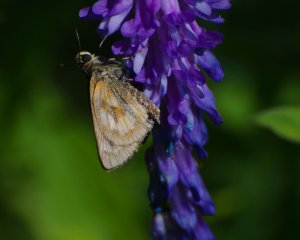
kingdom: Animalia
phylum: Arthropoda
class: Insecta
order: Lepidoptera
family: Hesperiidae
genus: Polites
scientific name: Polites
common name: Long Dash Skipper
